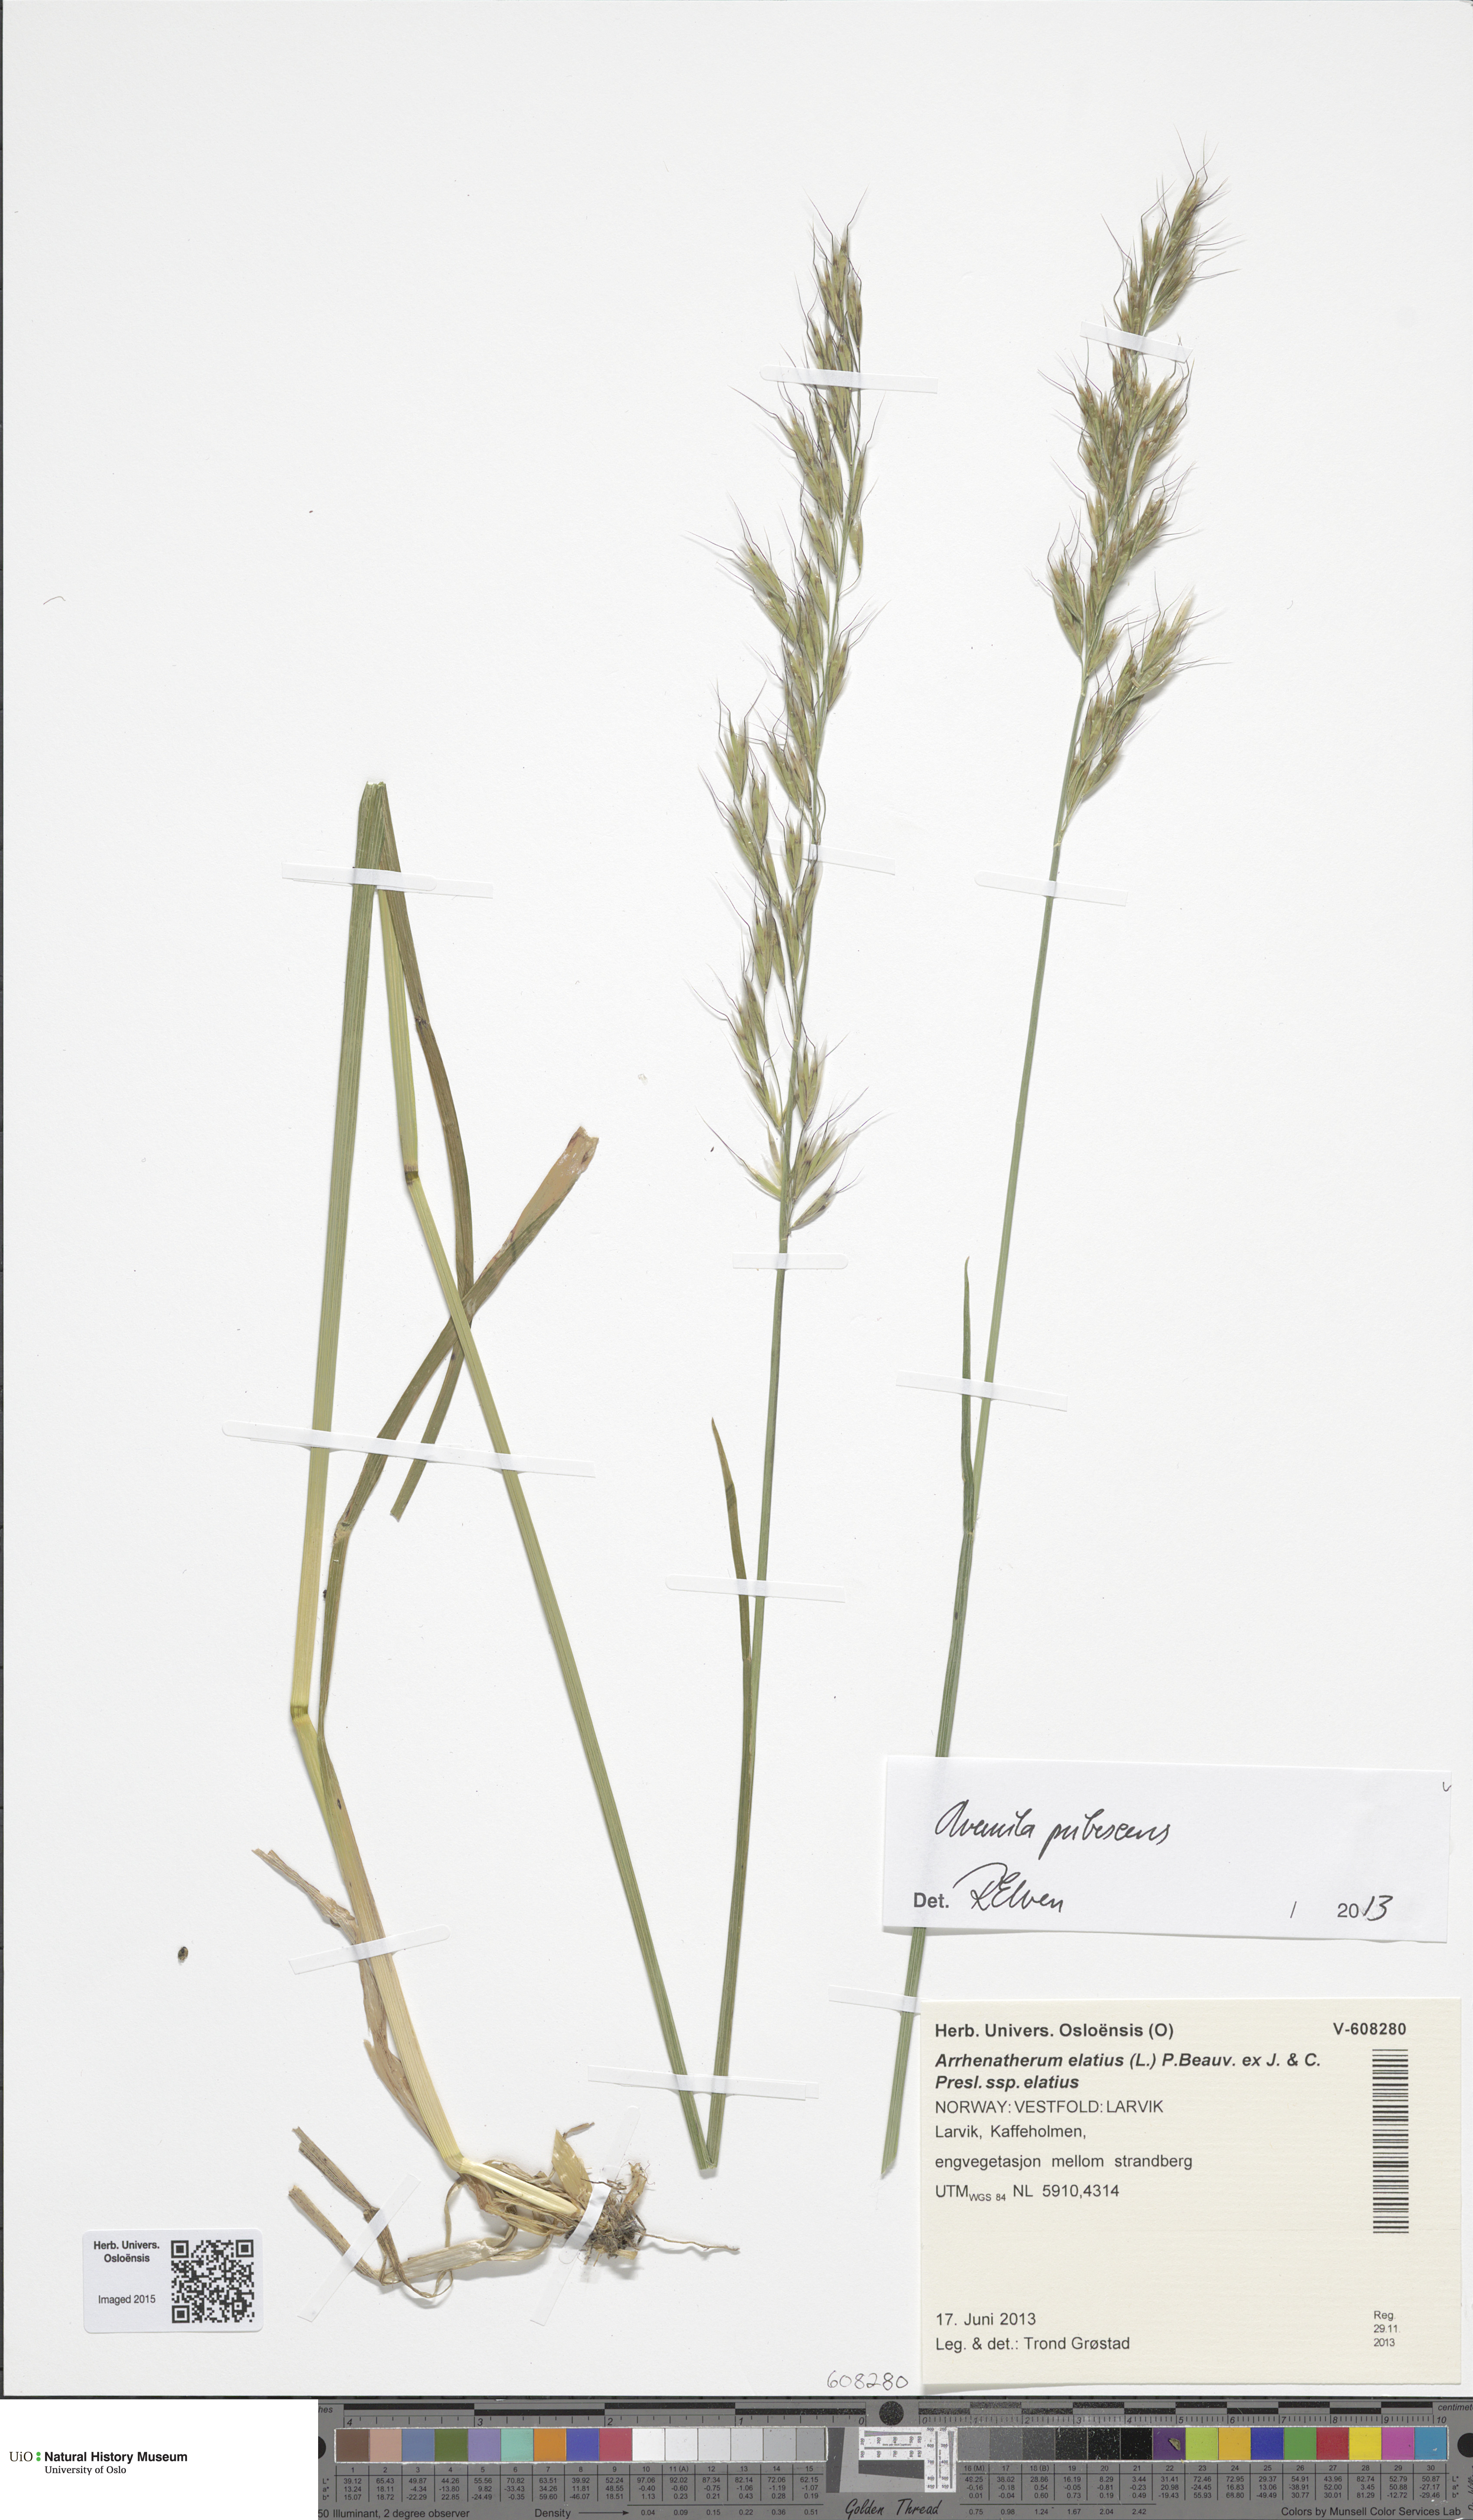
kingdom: Plantae
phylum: Tracheophyta
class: Liliopsida
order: Poales
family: Poaceae
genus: Avenula
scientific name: Avenula pubescens
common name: Downy alpine oatgrass
